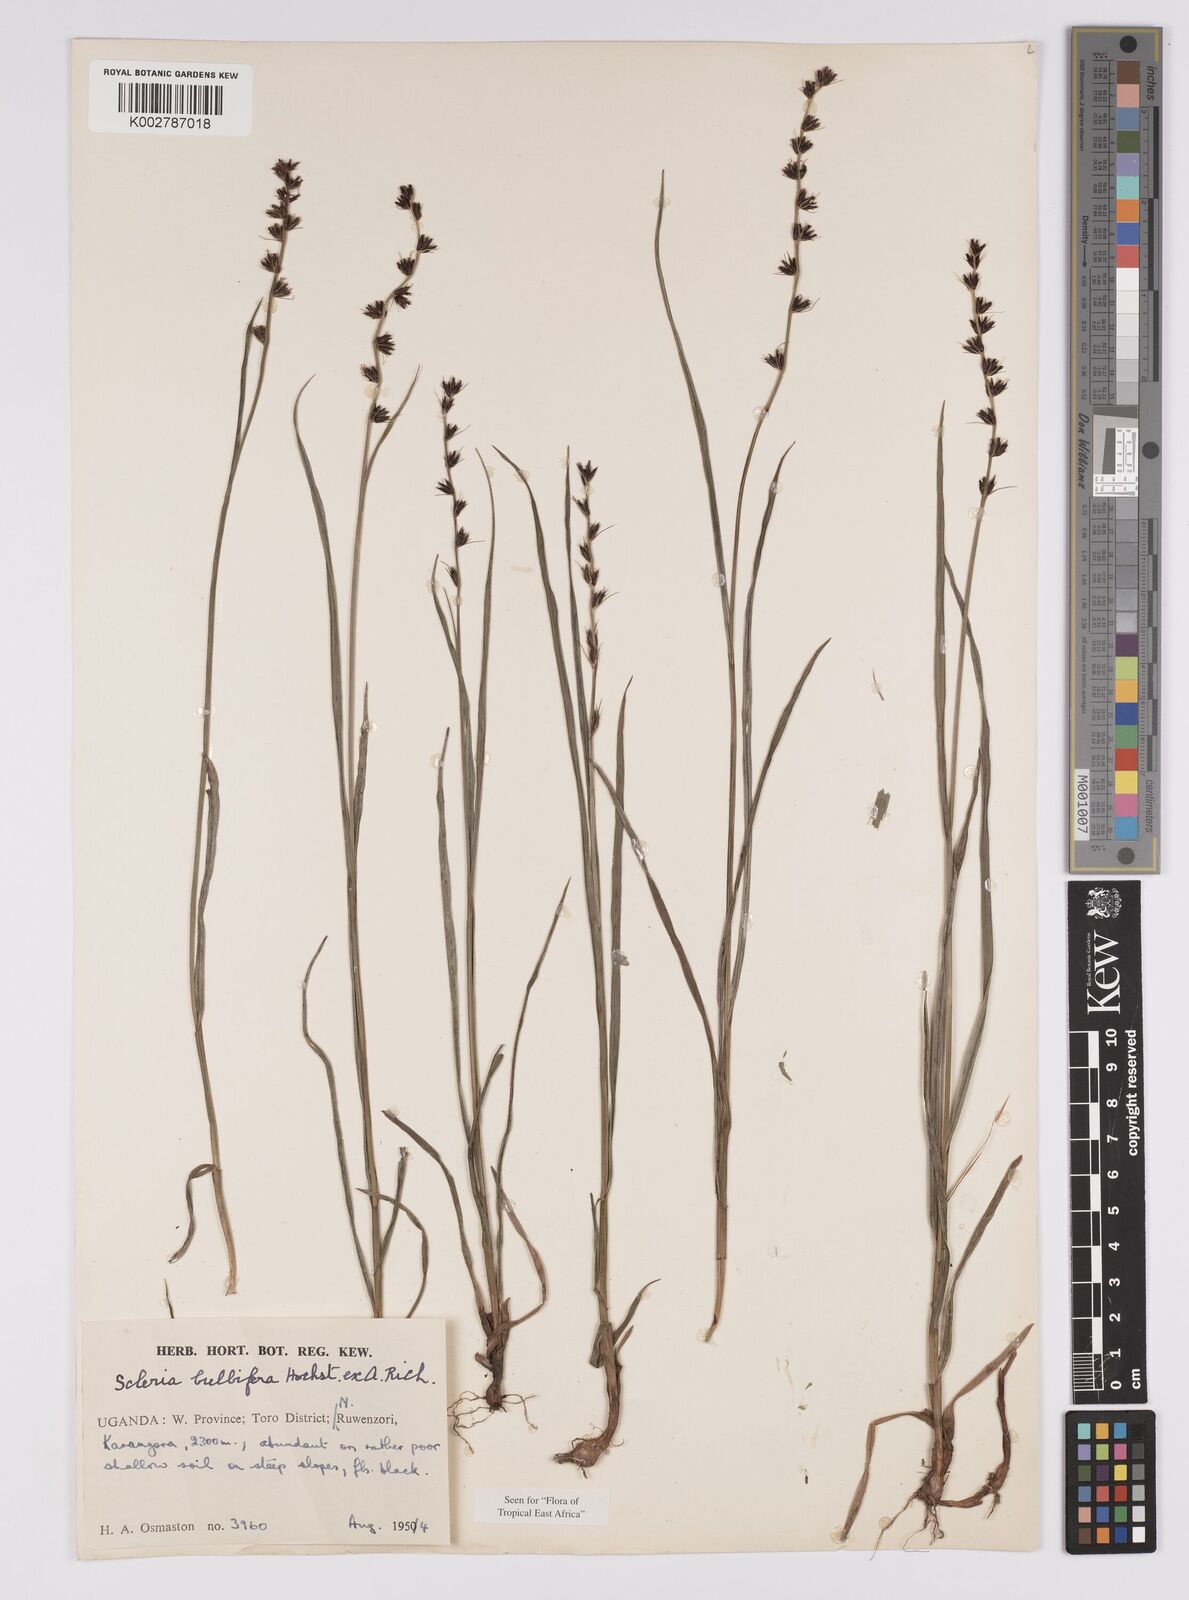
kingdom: Plantae
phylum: Tracheophyta
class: Liliopsida
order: Poales
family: Cyperaceae
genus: Scleria
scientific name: Scleria bulbifera
